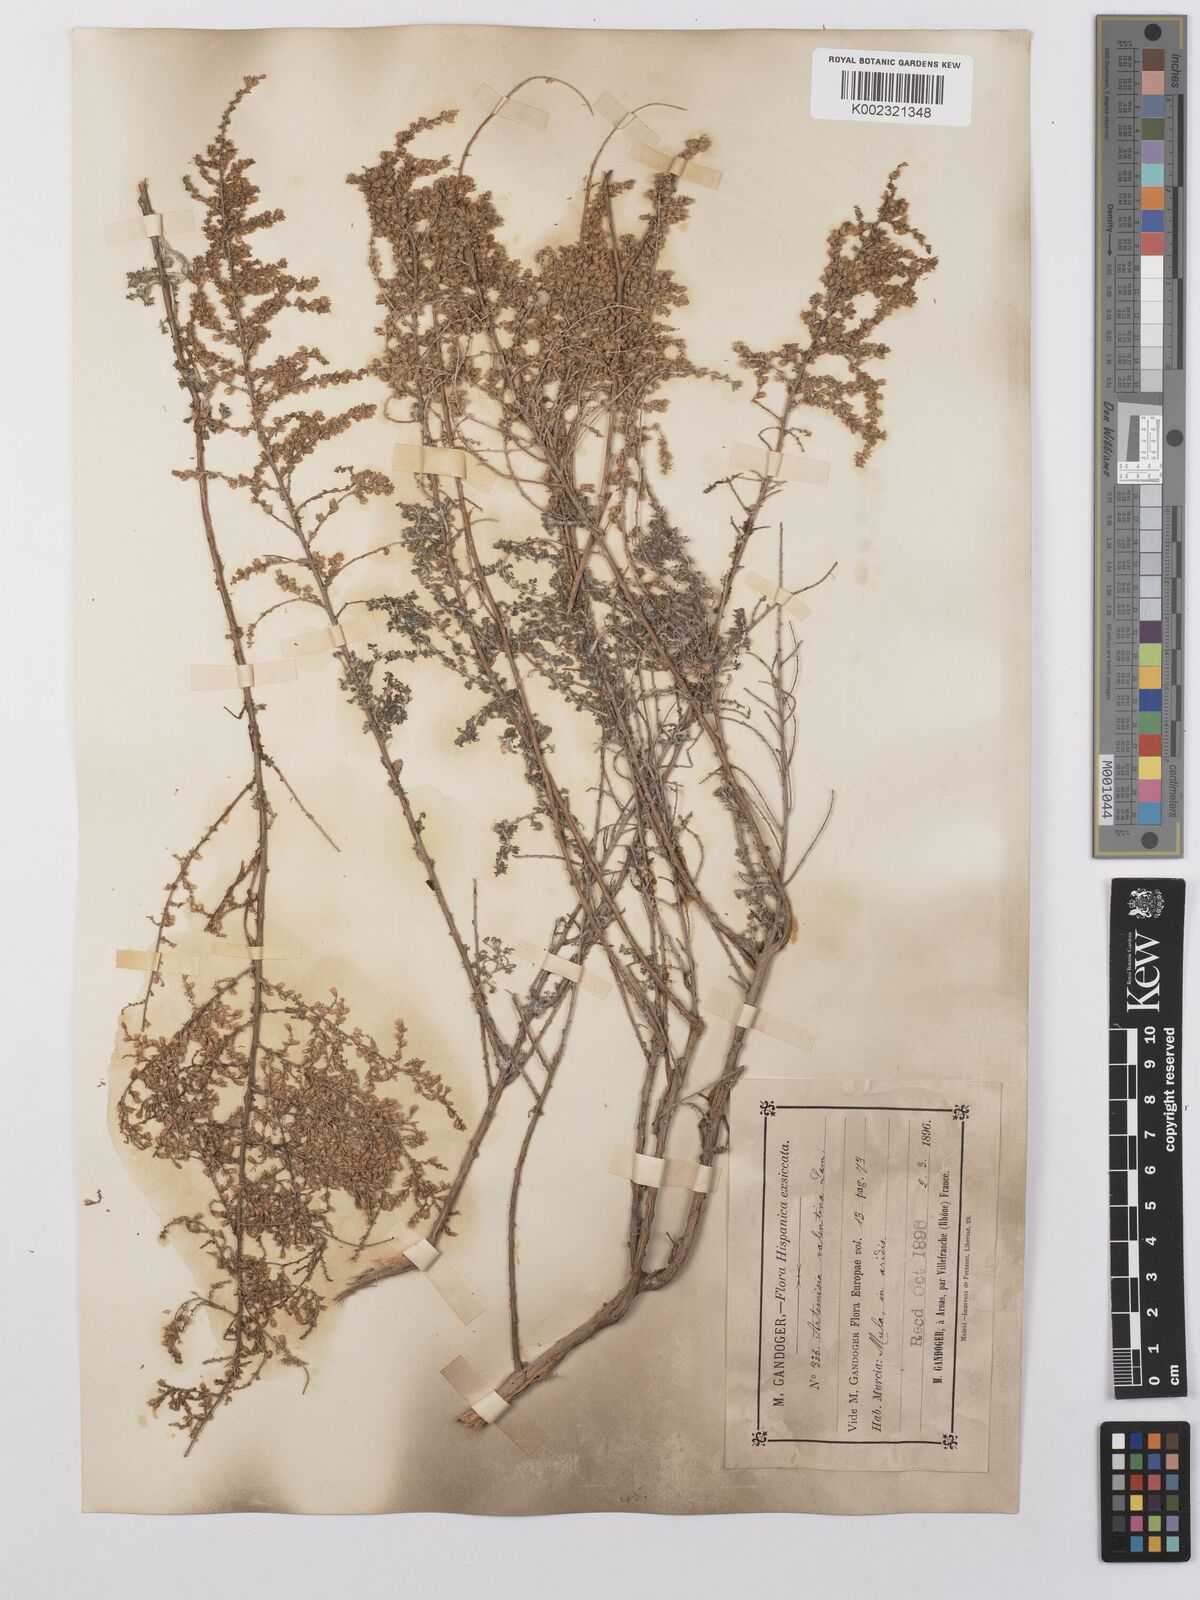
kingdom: Plantae
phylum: Tracheophyta
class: Magnoliopsida
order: Asterales
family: Asteraceae
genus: Artemisia
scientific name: Artemisia herba-alba
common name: White wormwood
